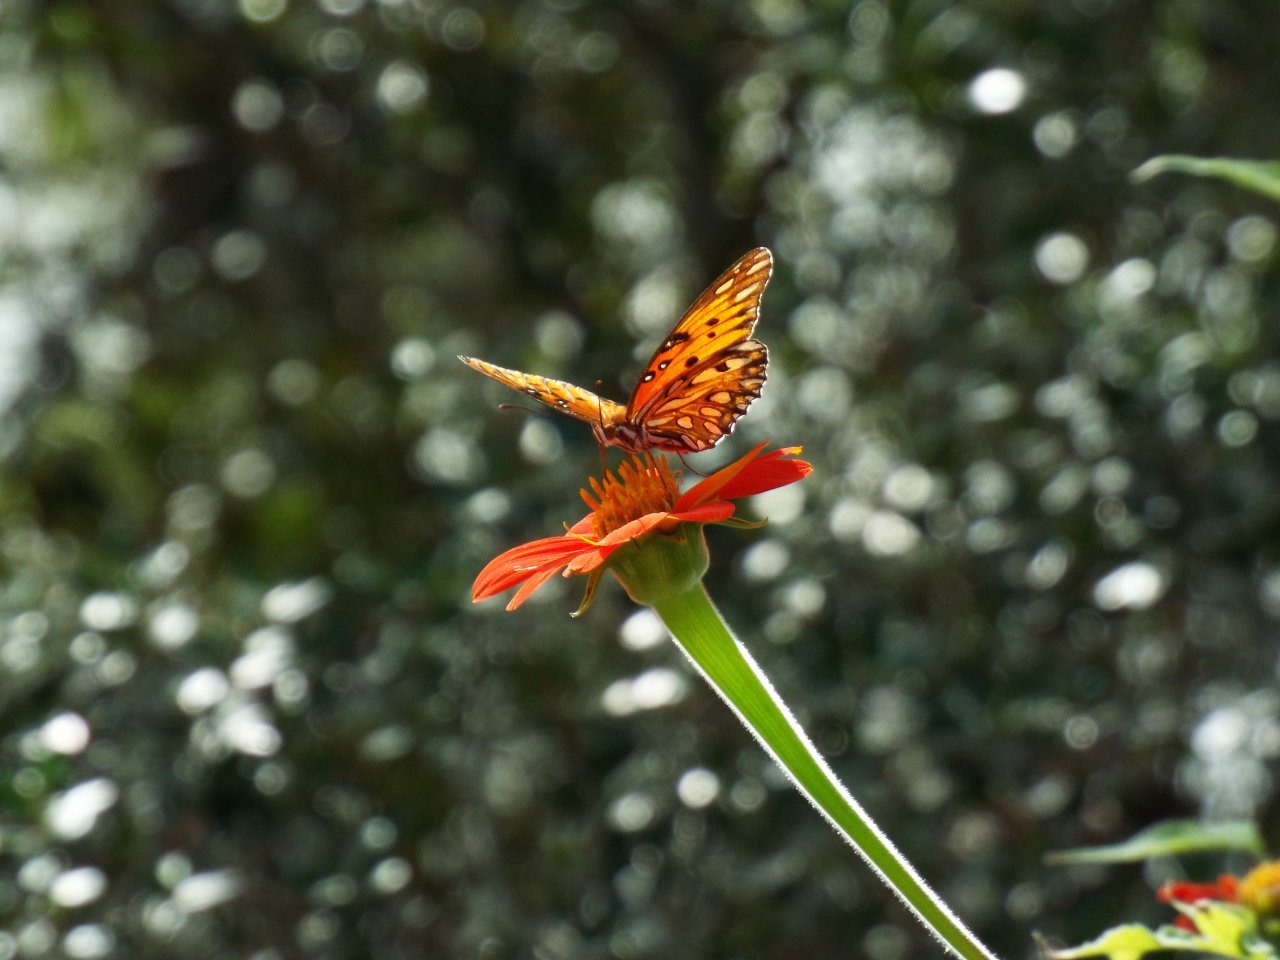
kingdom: Animalia
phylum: Arthropoda
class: Insecta
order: Lepidoptera
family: Nymphalidae
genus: Dione
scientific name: Dione vanillae
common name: Gulf Fritillary
